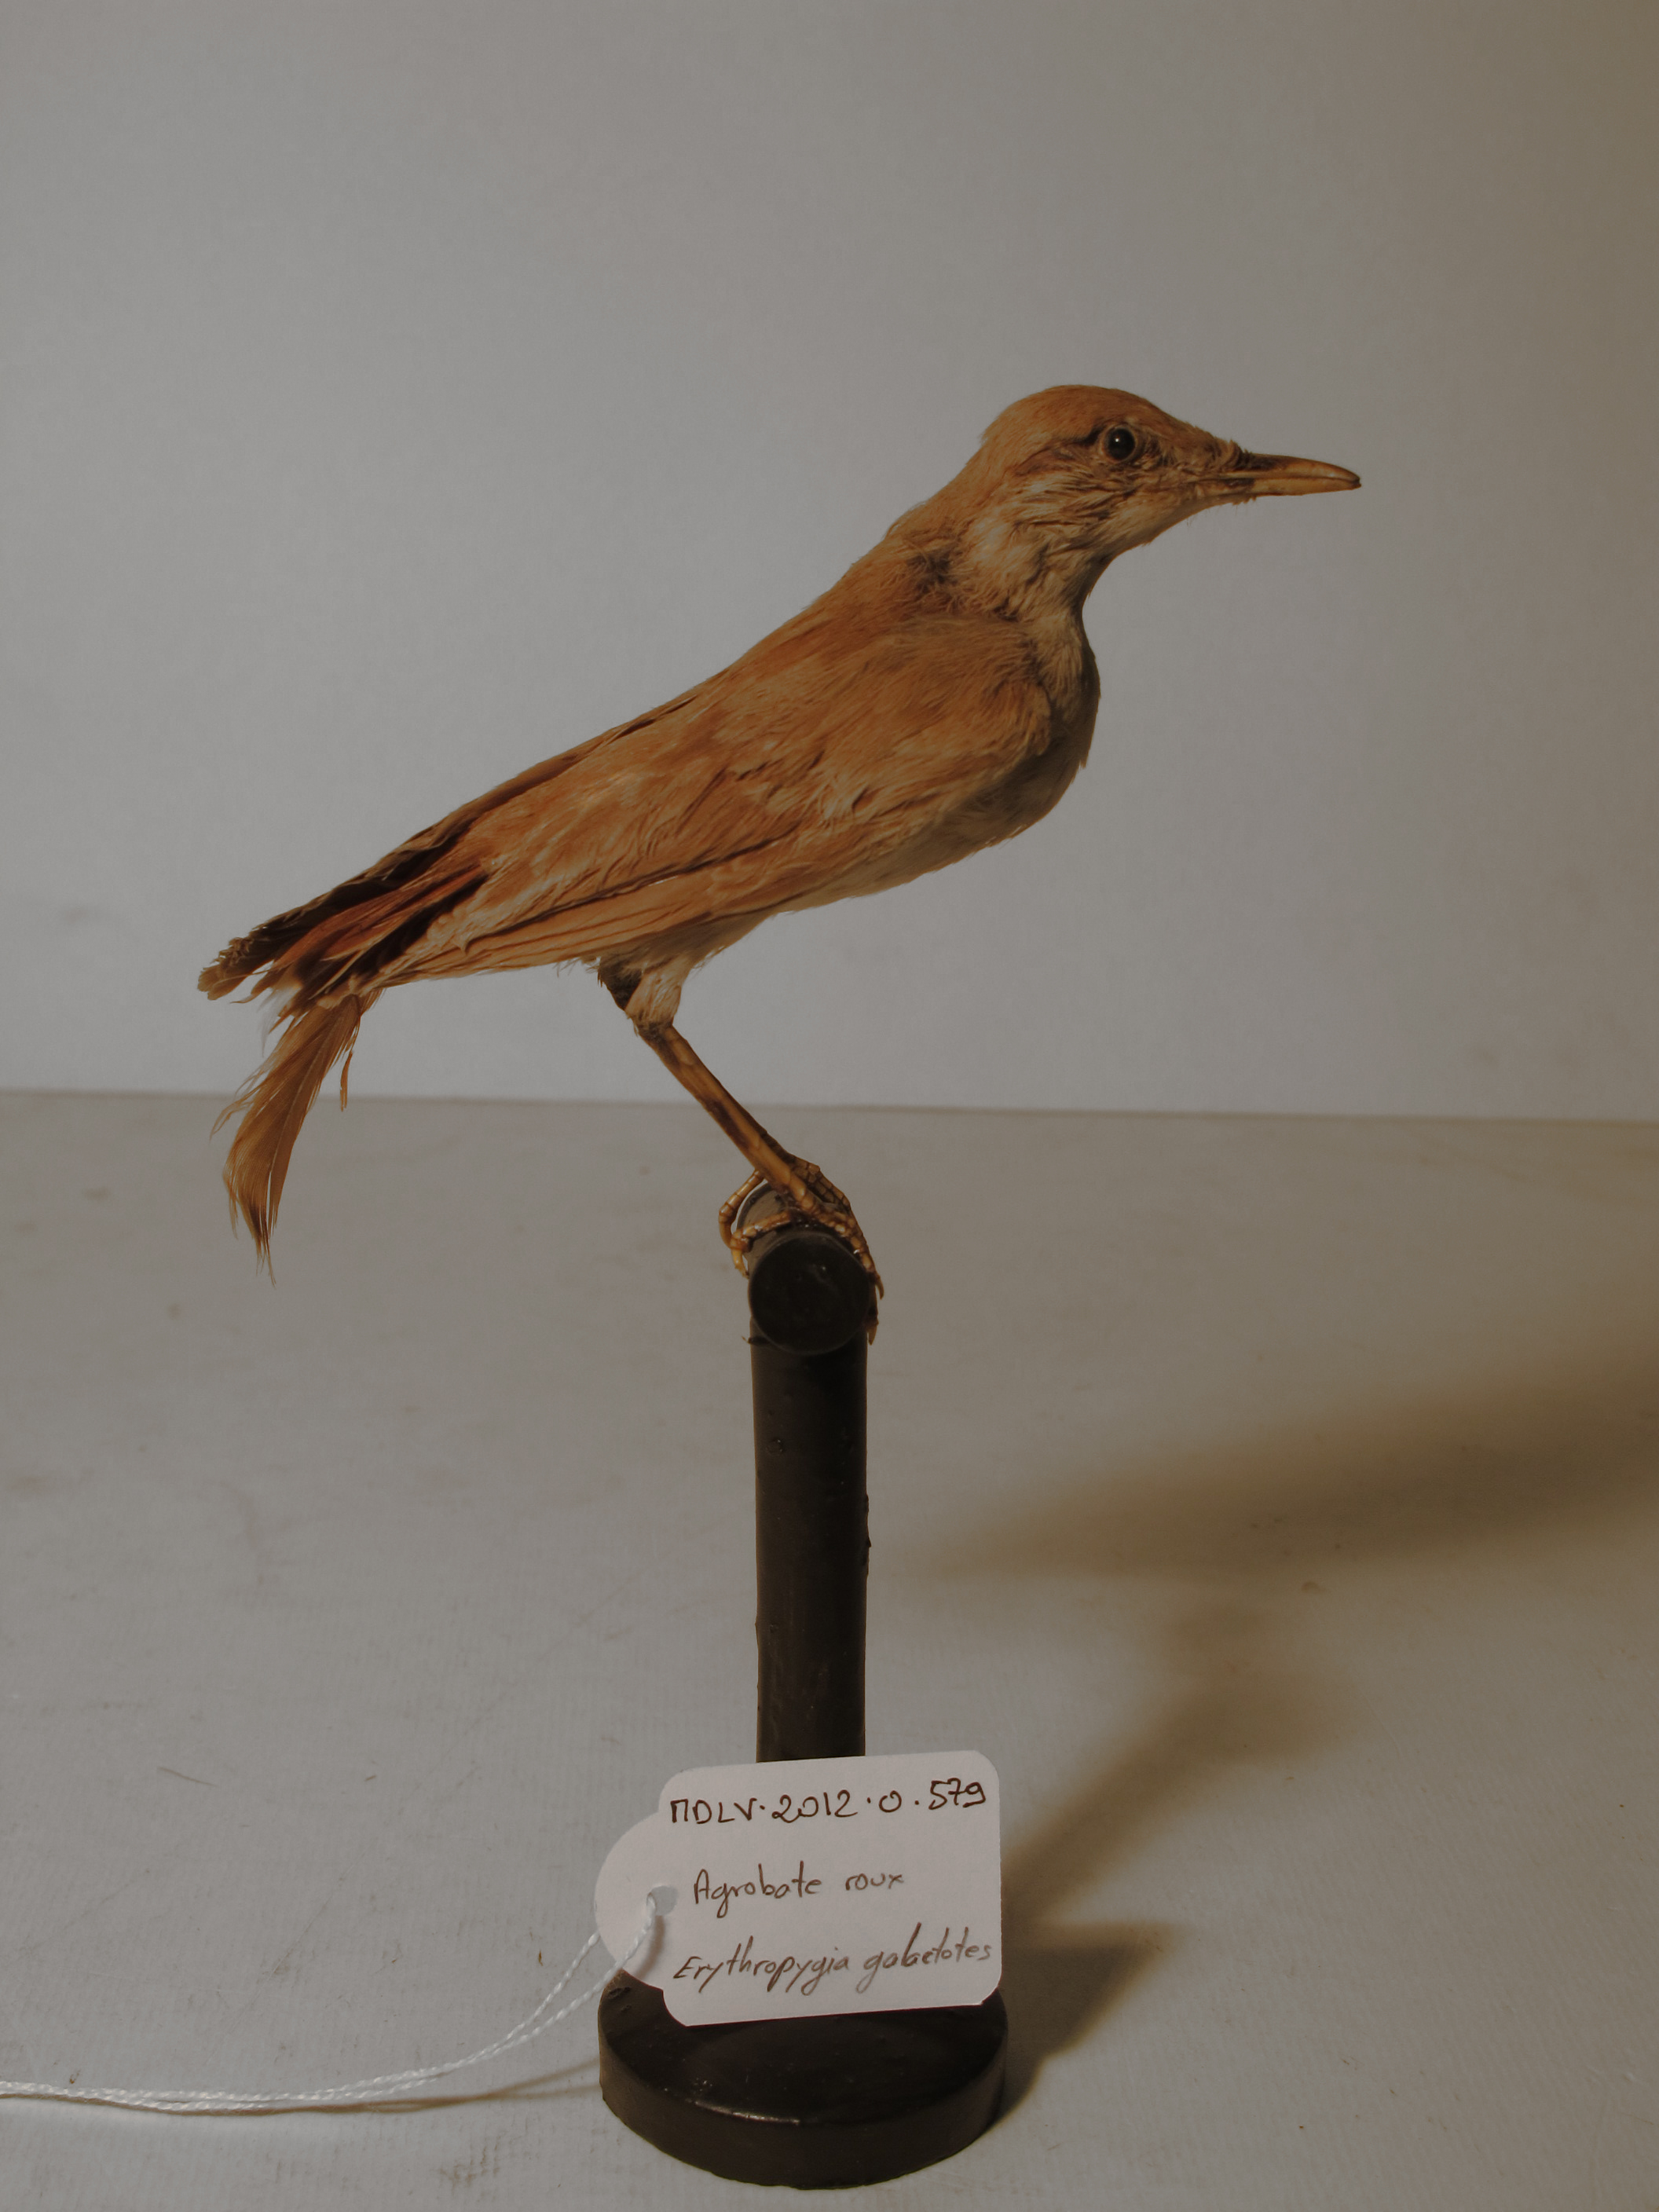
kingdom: Animalia
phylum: Chordata
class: Aves
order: Passeriformes
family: Muscicapidae
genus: Erythropygia
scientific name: Erythropygia galactotes
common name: Rufous Scrub-robin
